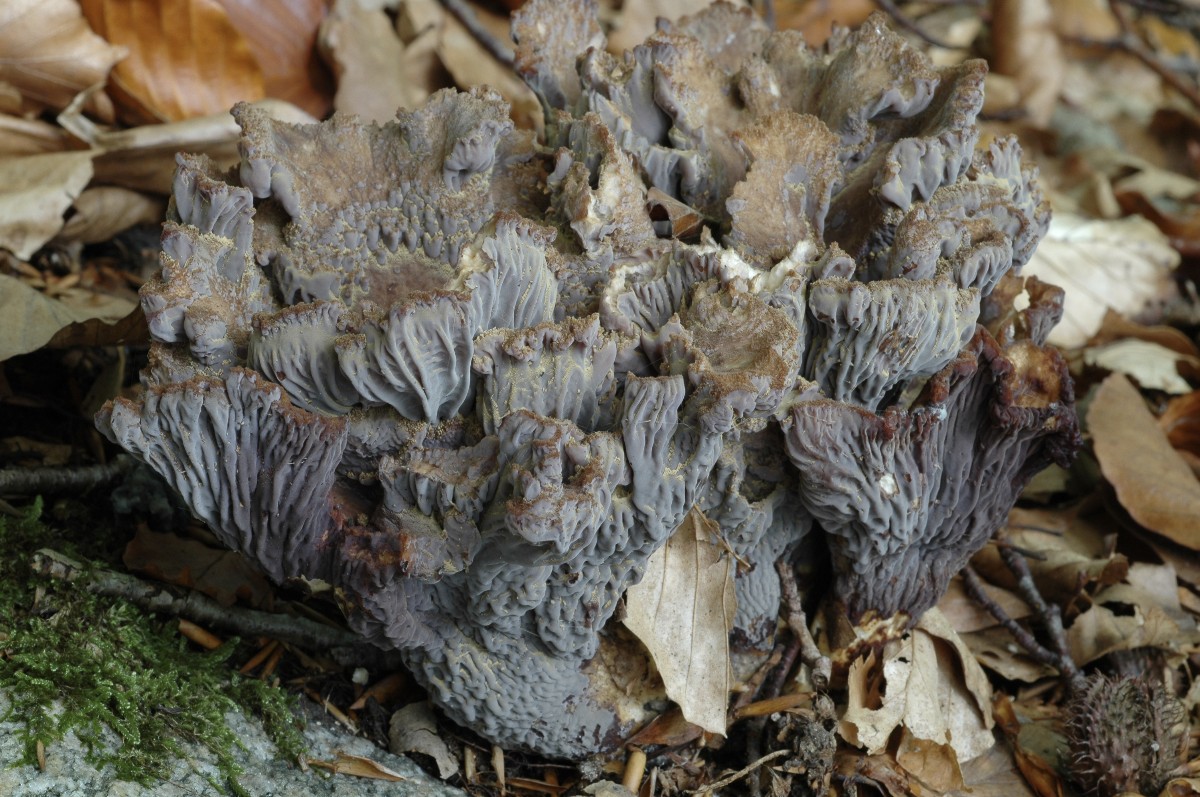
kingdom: Fungi
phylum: Basidiomycota
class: Agaricomycetes
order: Gomphales
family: Gomphaceae
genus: Gomphus
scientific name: Gomphus clavatus
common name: køllekantarel
